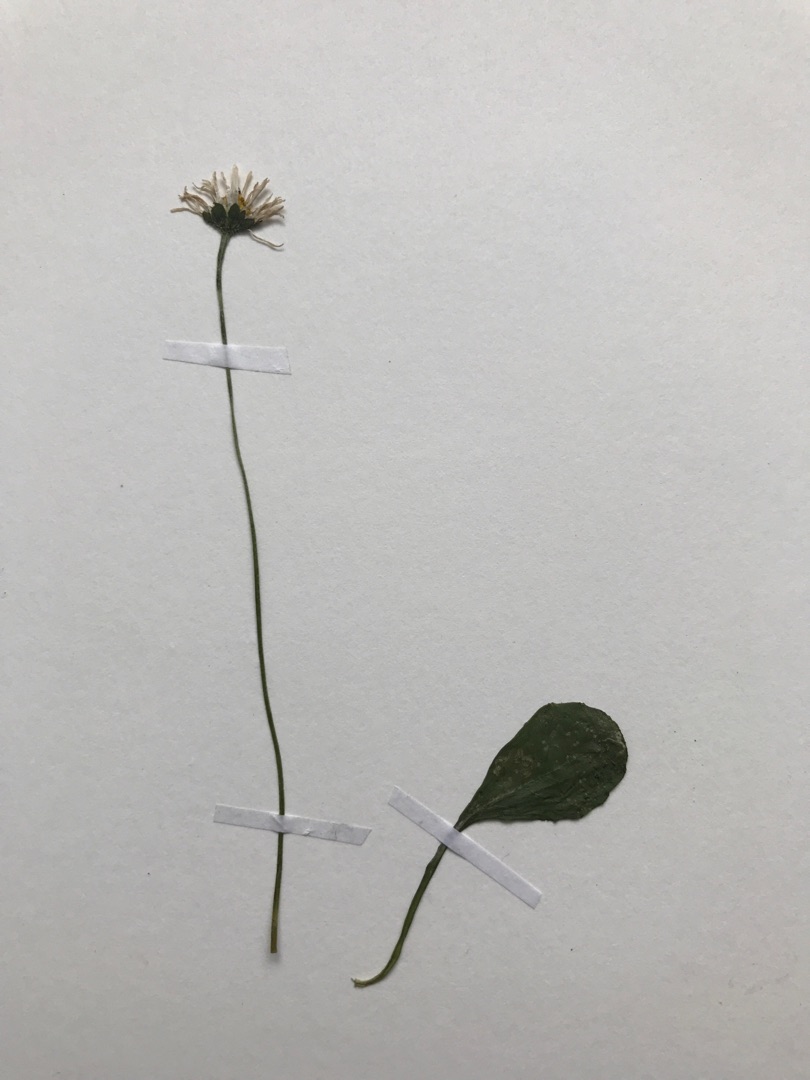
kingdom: Plantae
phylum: Tracheophyta
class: Magnoliopsida
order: Asterales
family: Asteraceae
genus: Bellis
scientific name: Bellis perennis
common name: Tusindfryd
